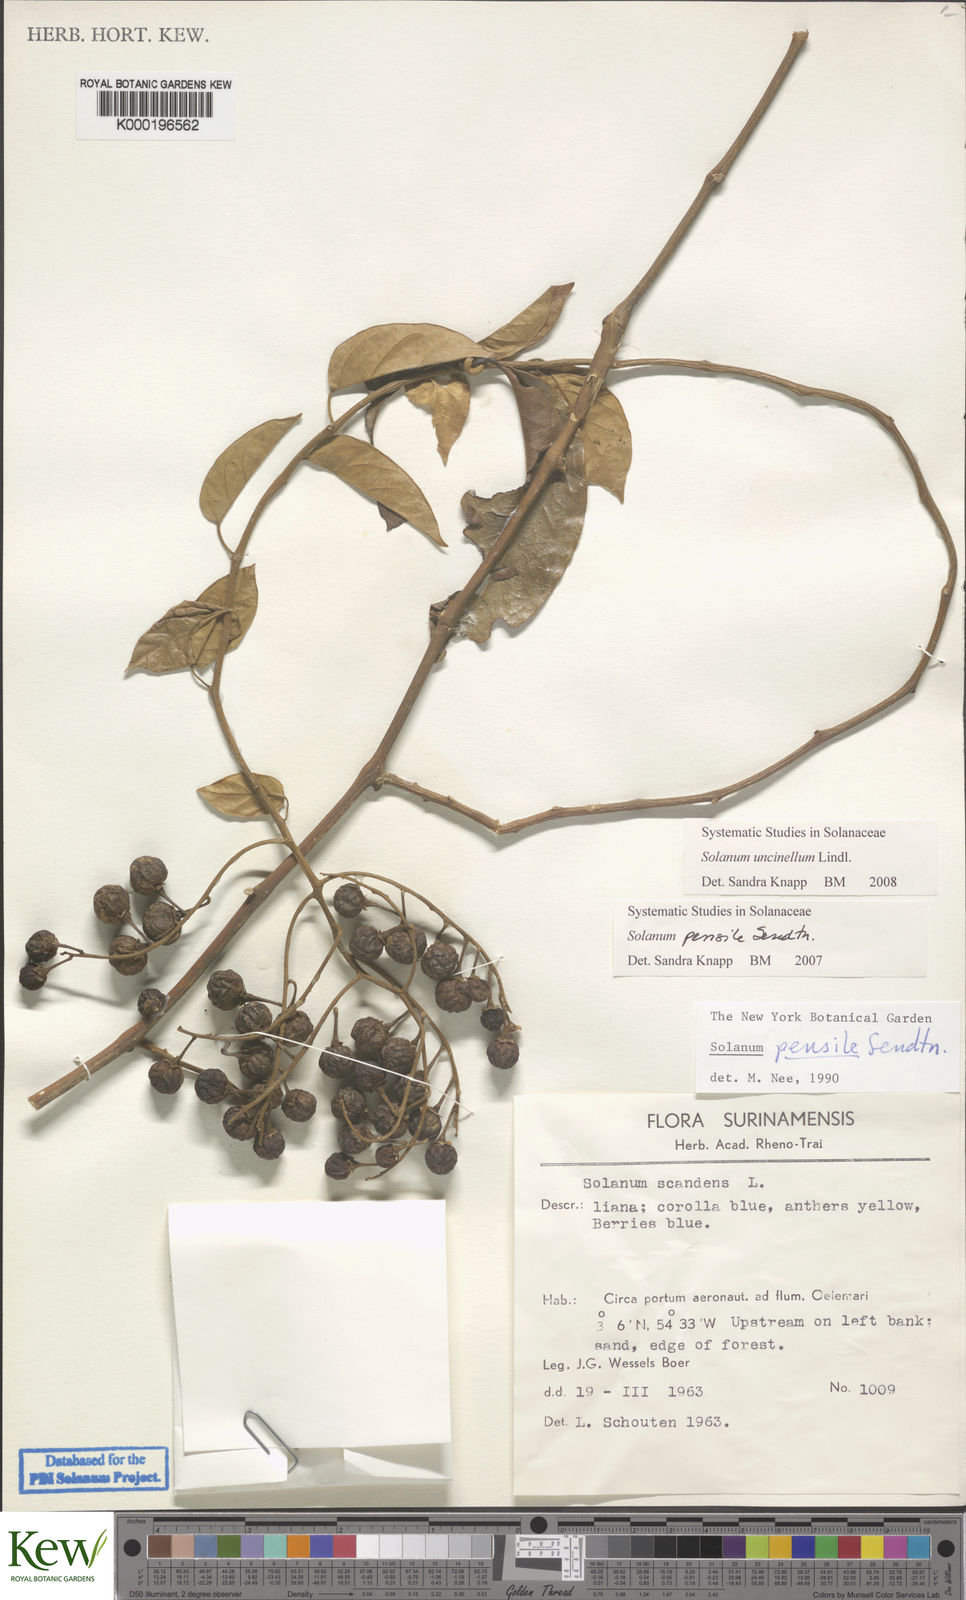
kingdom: Plantae
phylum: Tracheophyta
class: Magnoliopsida
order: Solanales
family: Solanaceae
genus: Solanum
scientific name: Solanum uncinellum
